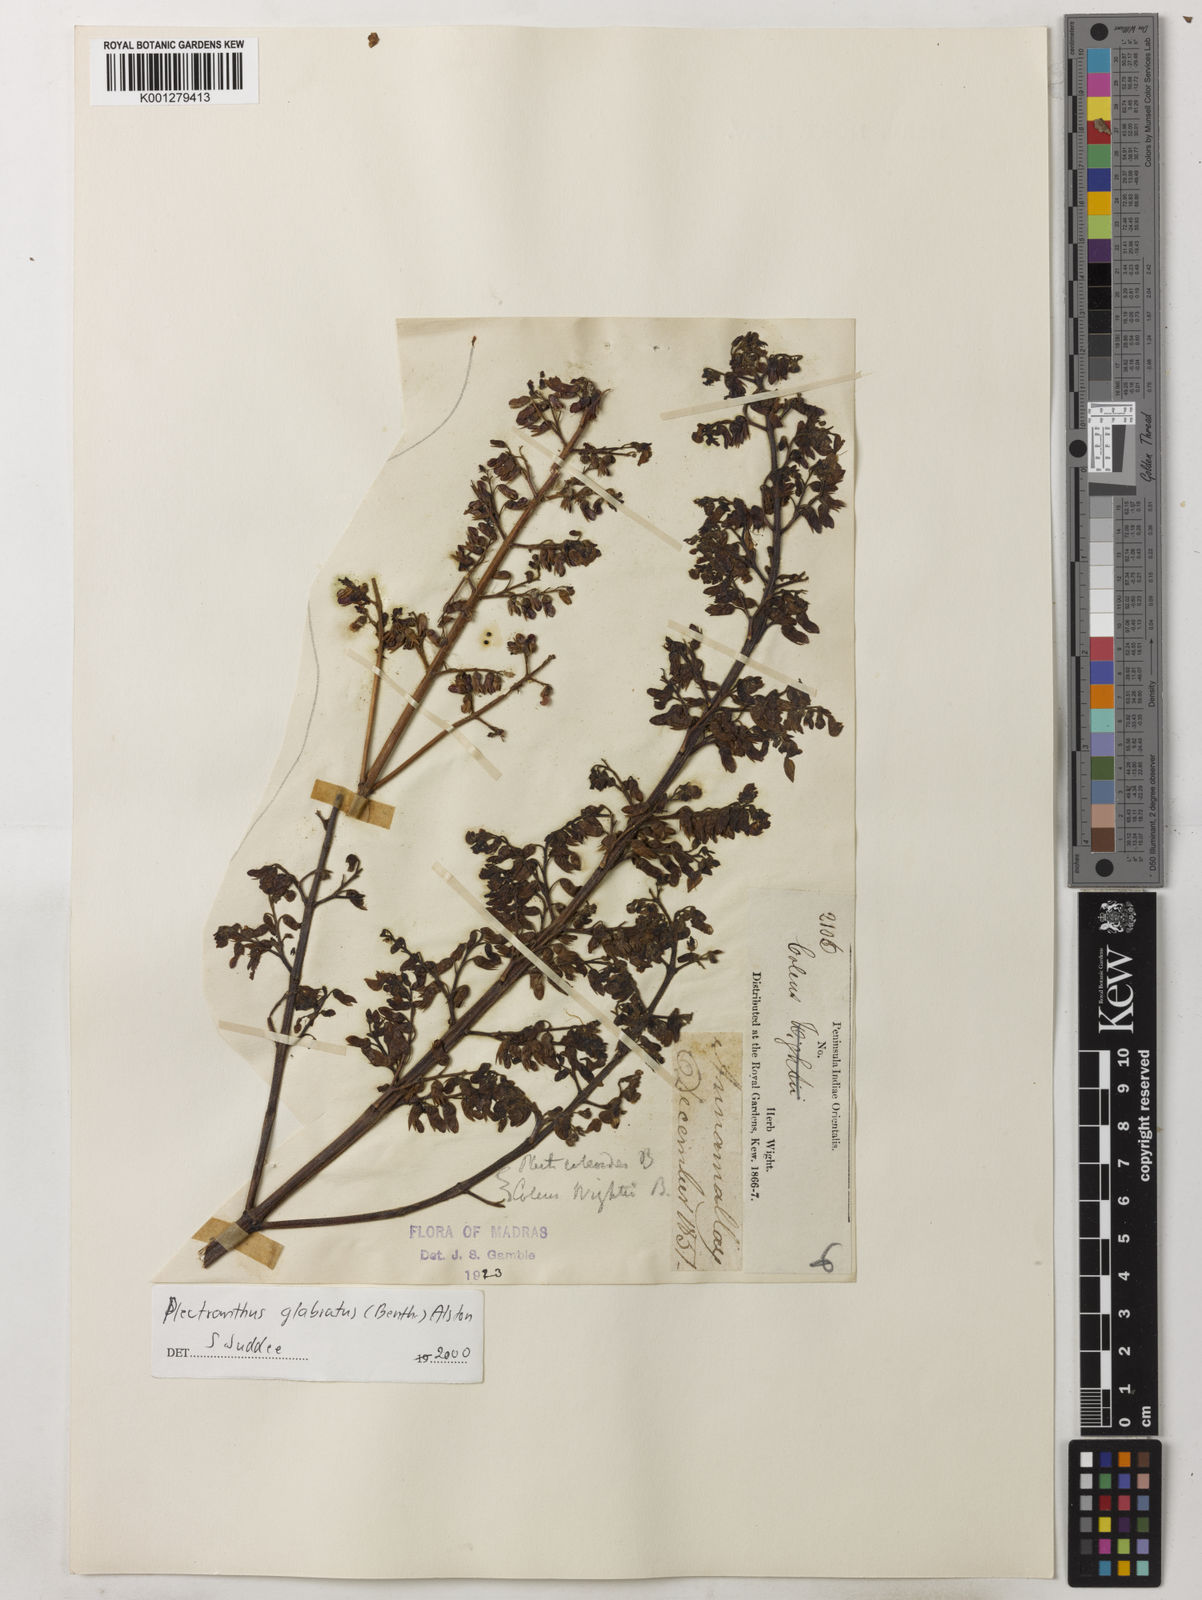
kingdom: Plantae
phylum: Tracheophyta
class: Magnoliopsida
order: Lamiales
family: Lamiaceae
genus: Coleus
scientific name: Coleus paniculatus
